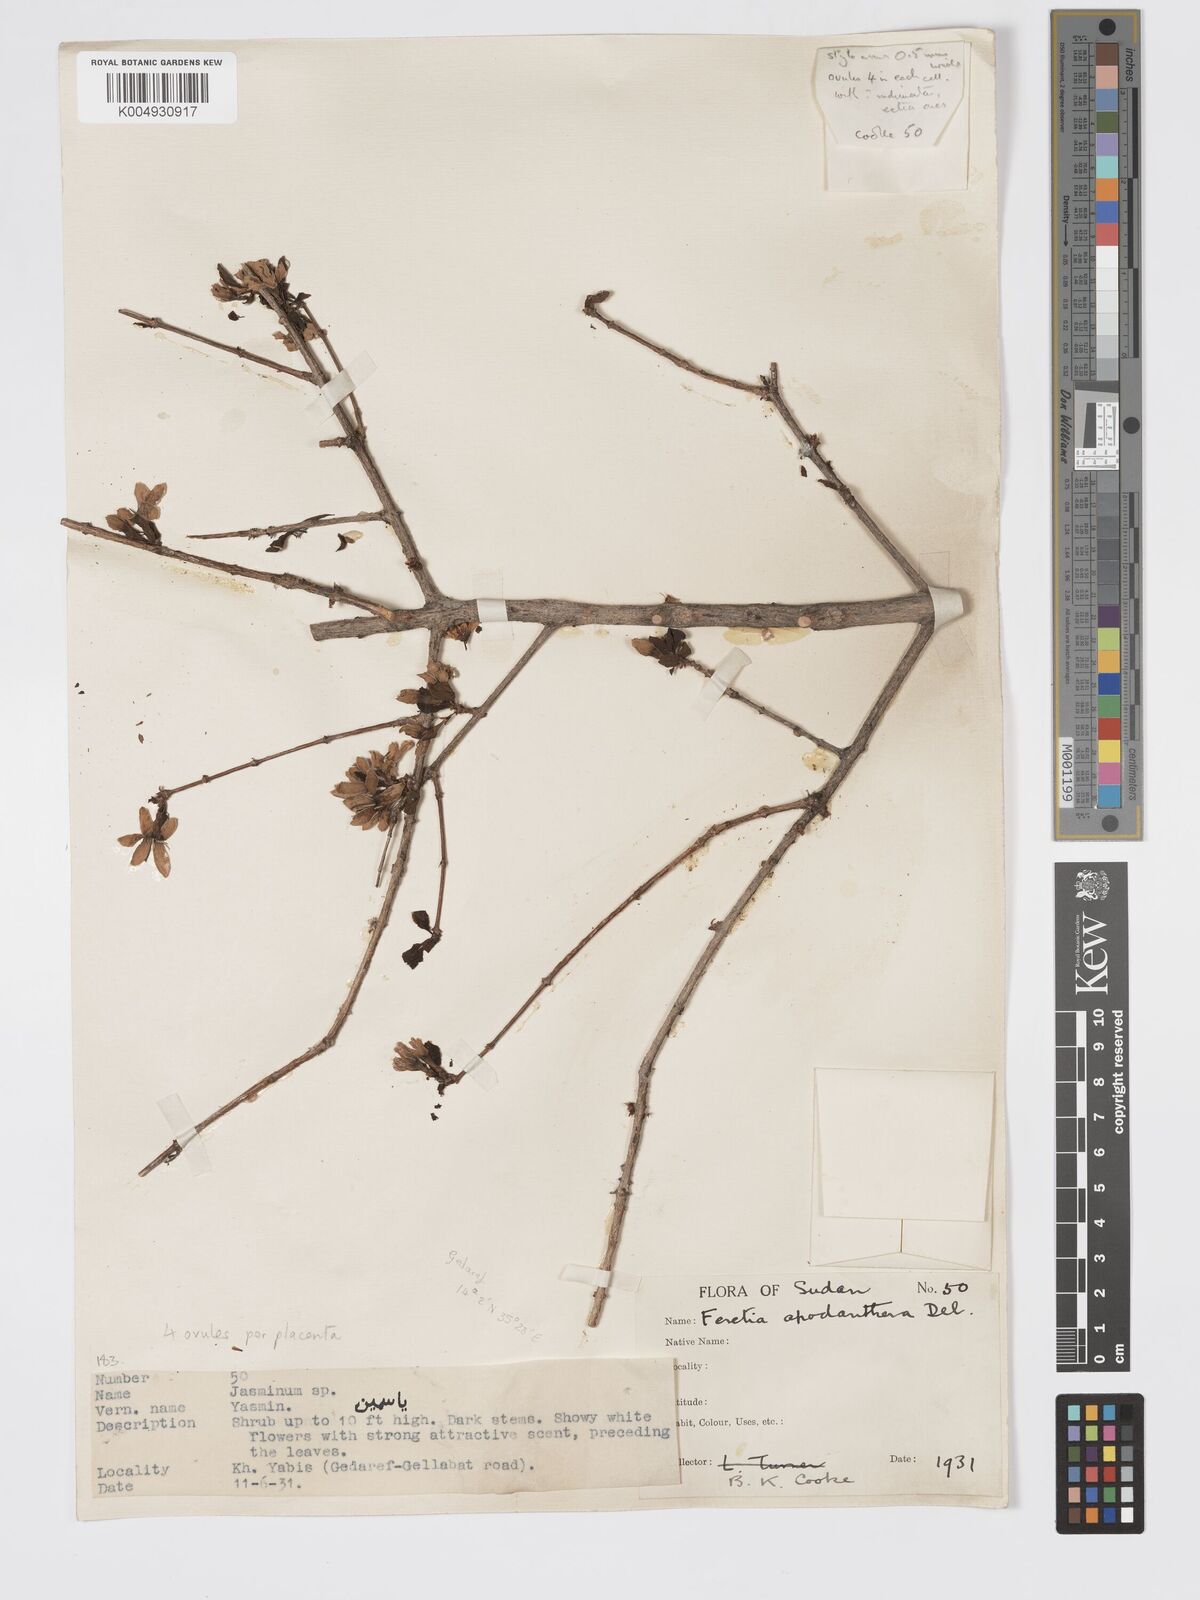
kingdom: Plantae
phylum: Tracheophyta
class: Magnoliopsida
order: Gentianales
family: Rubiaceae
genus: Feretia
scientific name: Feretia apodanthera
